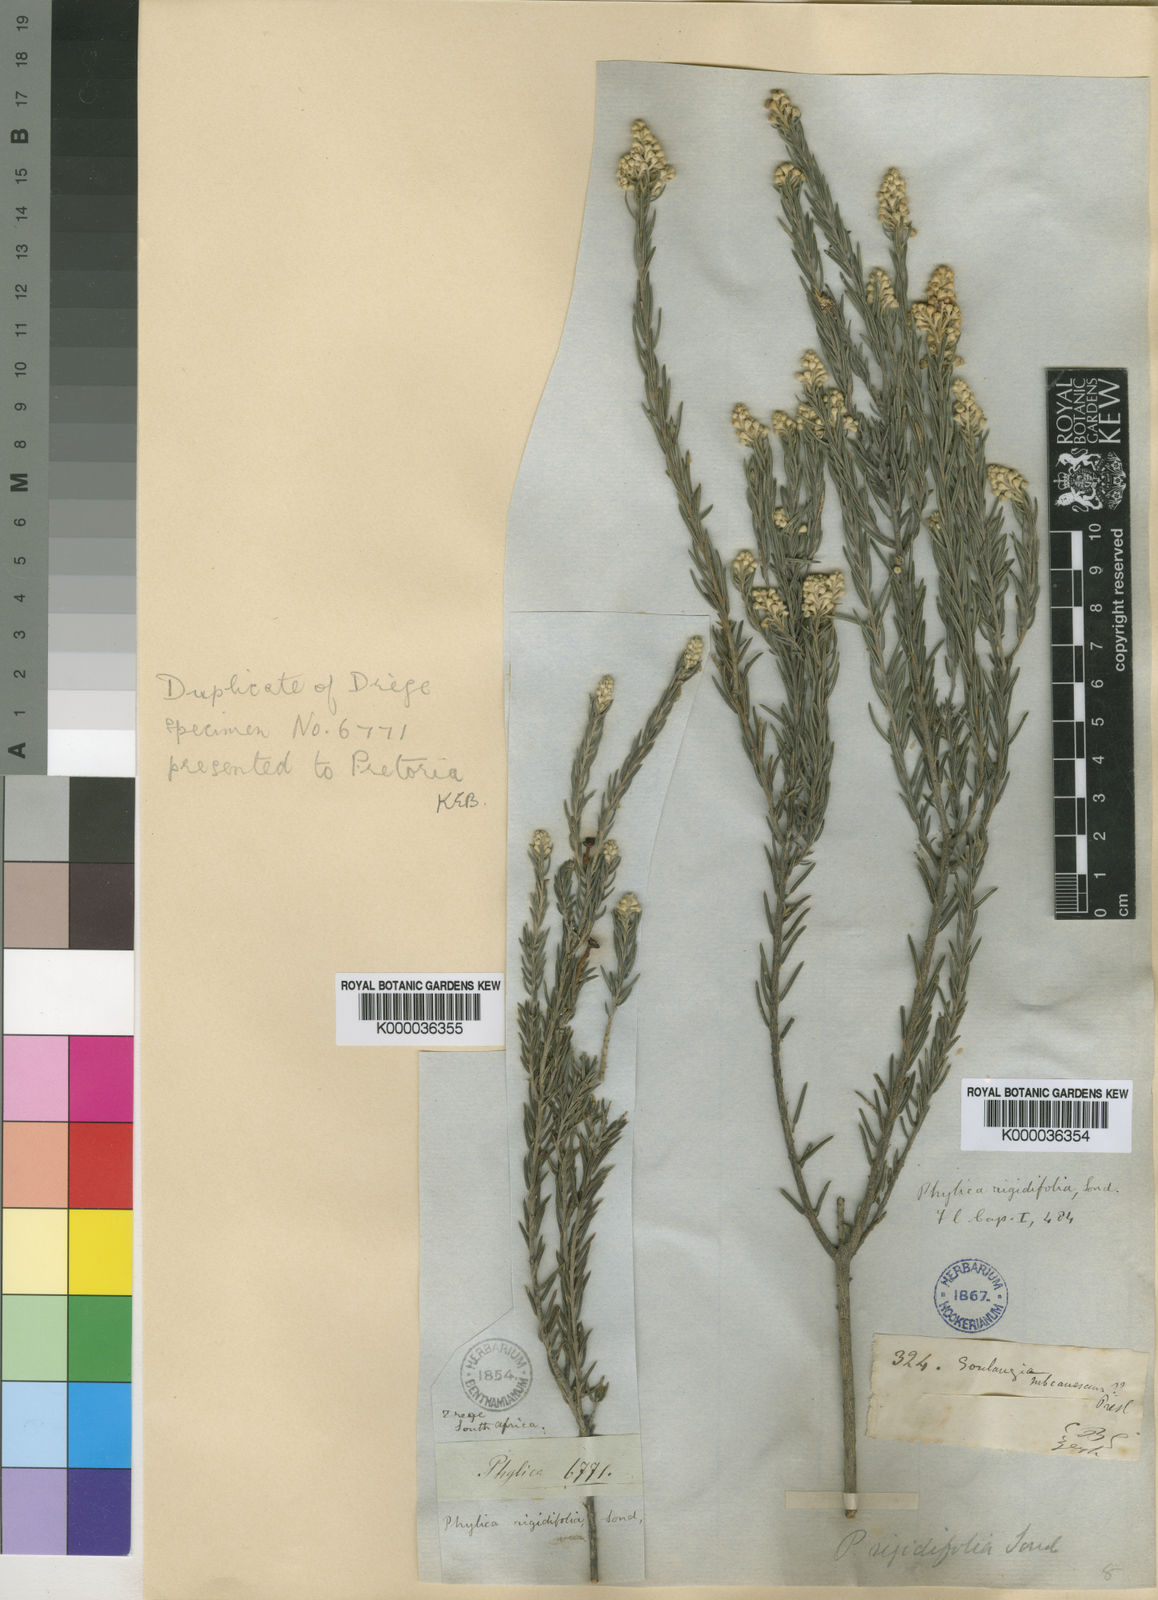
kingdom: Plantae
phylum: Tracheophyta
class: Magnoliopsida
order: Rosales
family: Rhamnaceae
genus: Phylica
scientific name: Phylica rigidifolia
